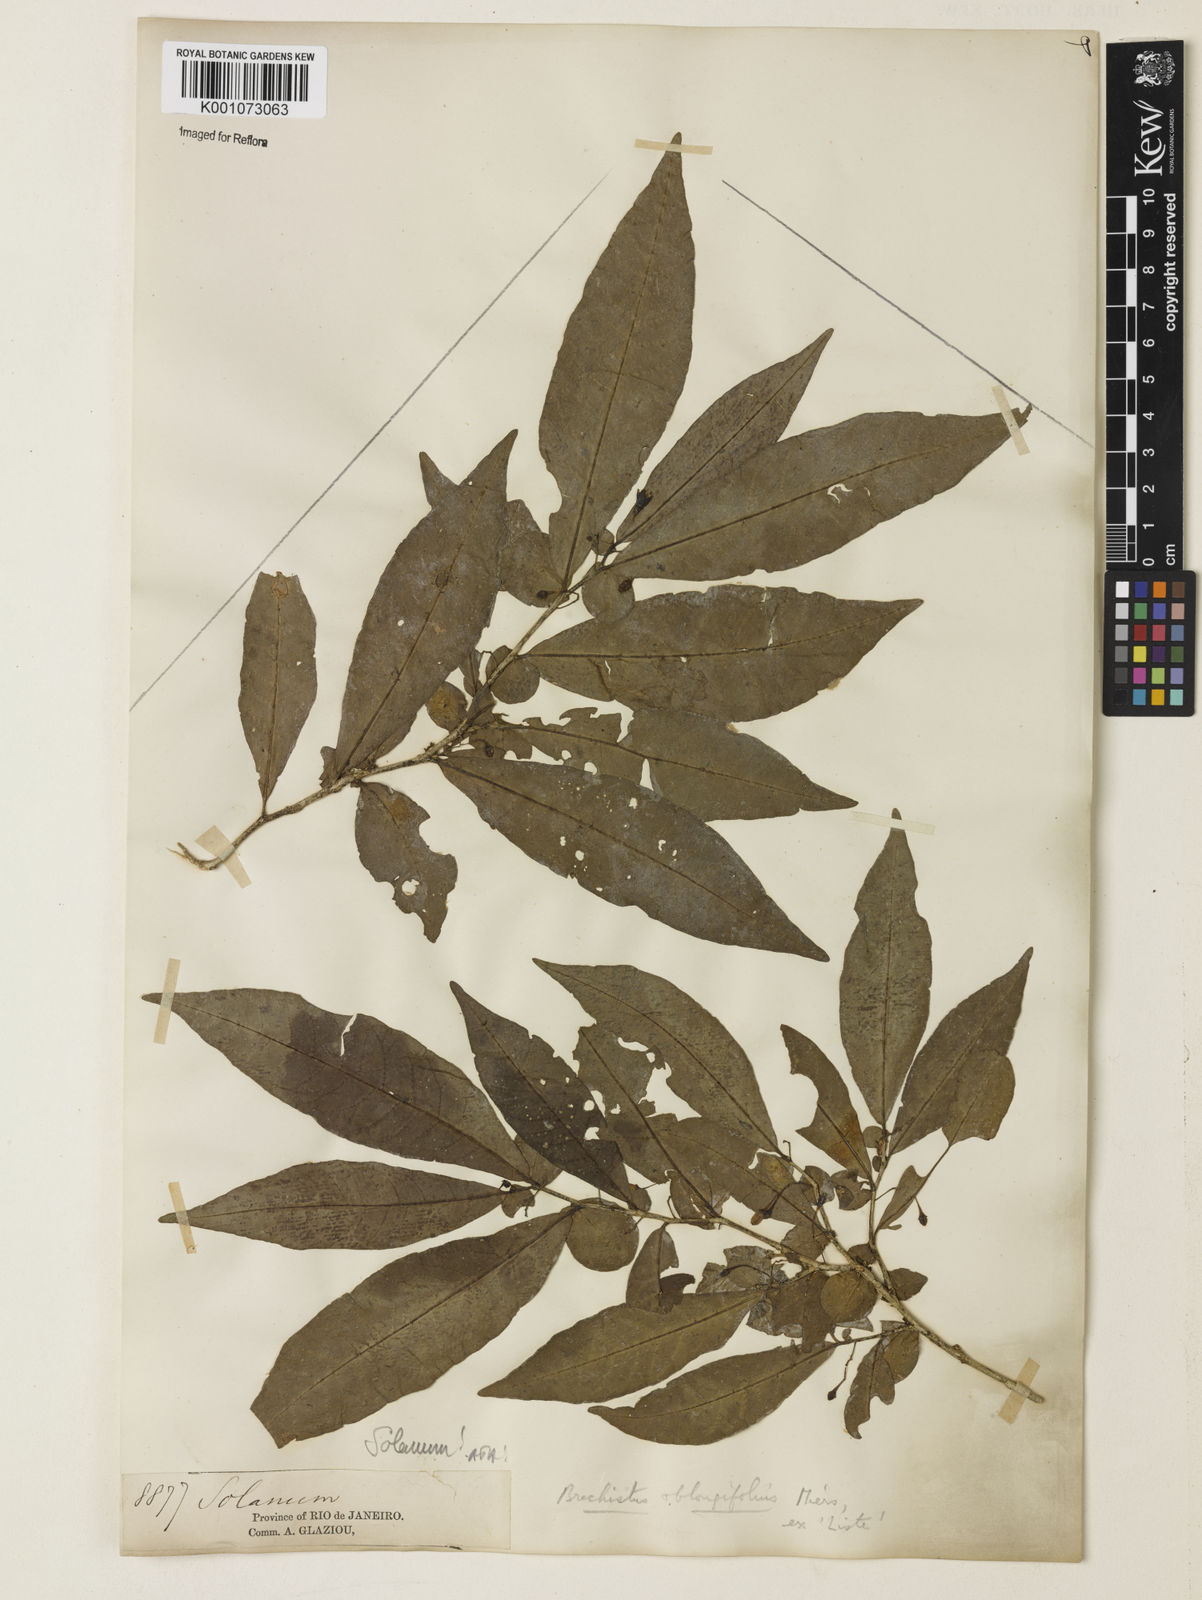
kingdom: Plantae
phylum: Tracheophyta
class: Magnoliopsida
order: Solanales
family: Solanaceae
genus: Iochroma
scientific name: Iochroma arborescens
